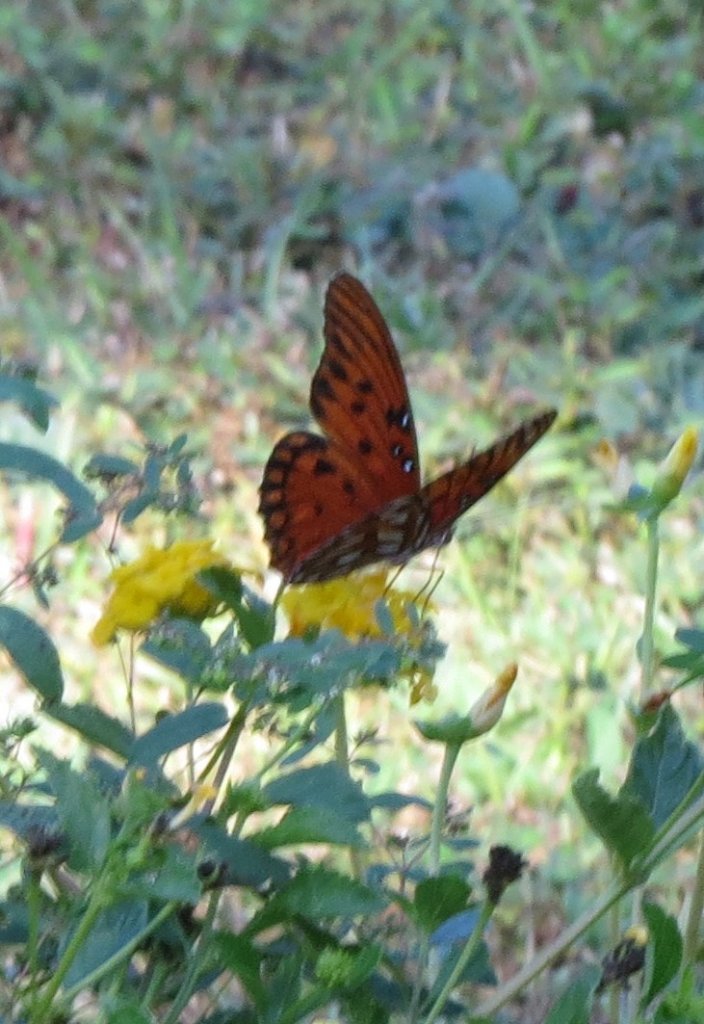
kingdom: Animalia
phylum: Arthropoda
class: Insecta
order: Lepidoptera
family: Nymphalidae
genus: Dione
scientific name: Dione vanillae
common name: Gulf Fritillary
